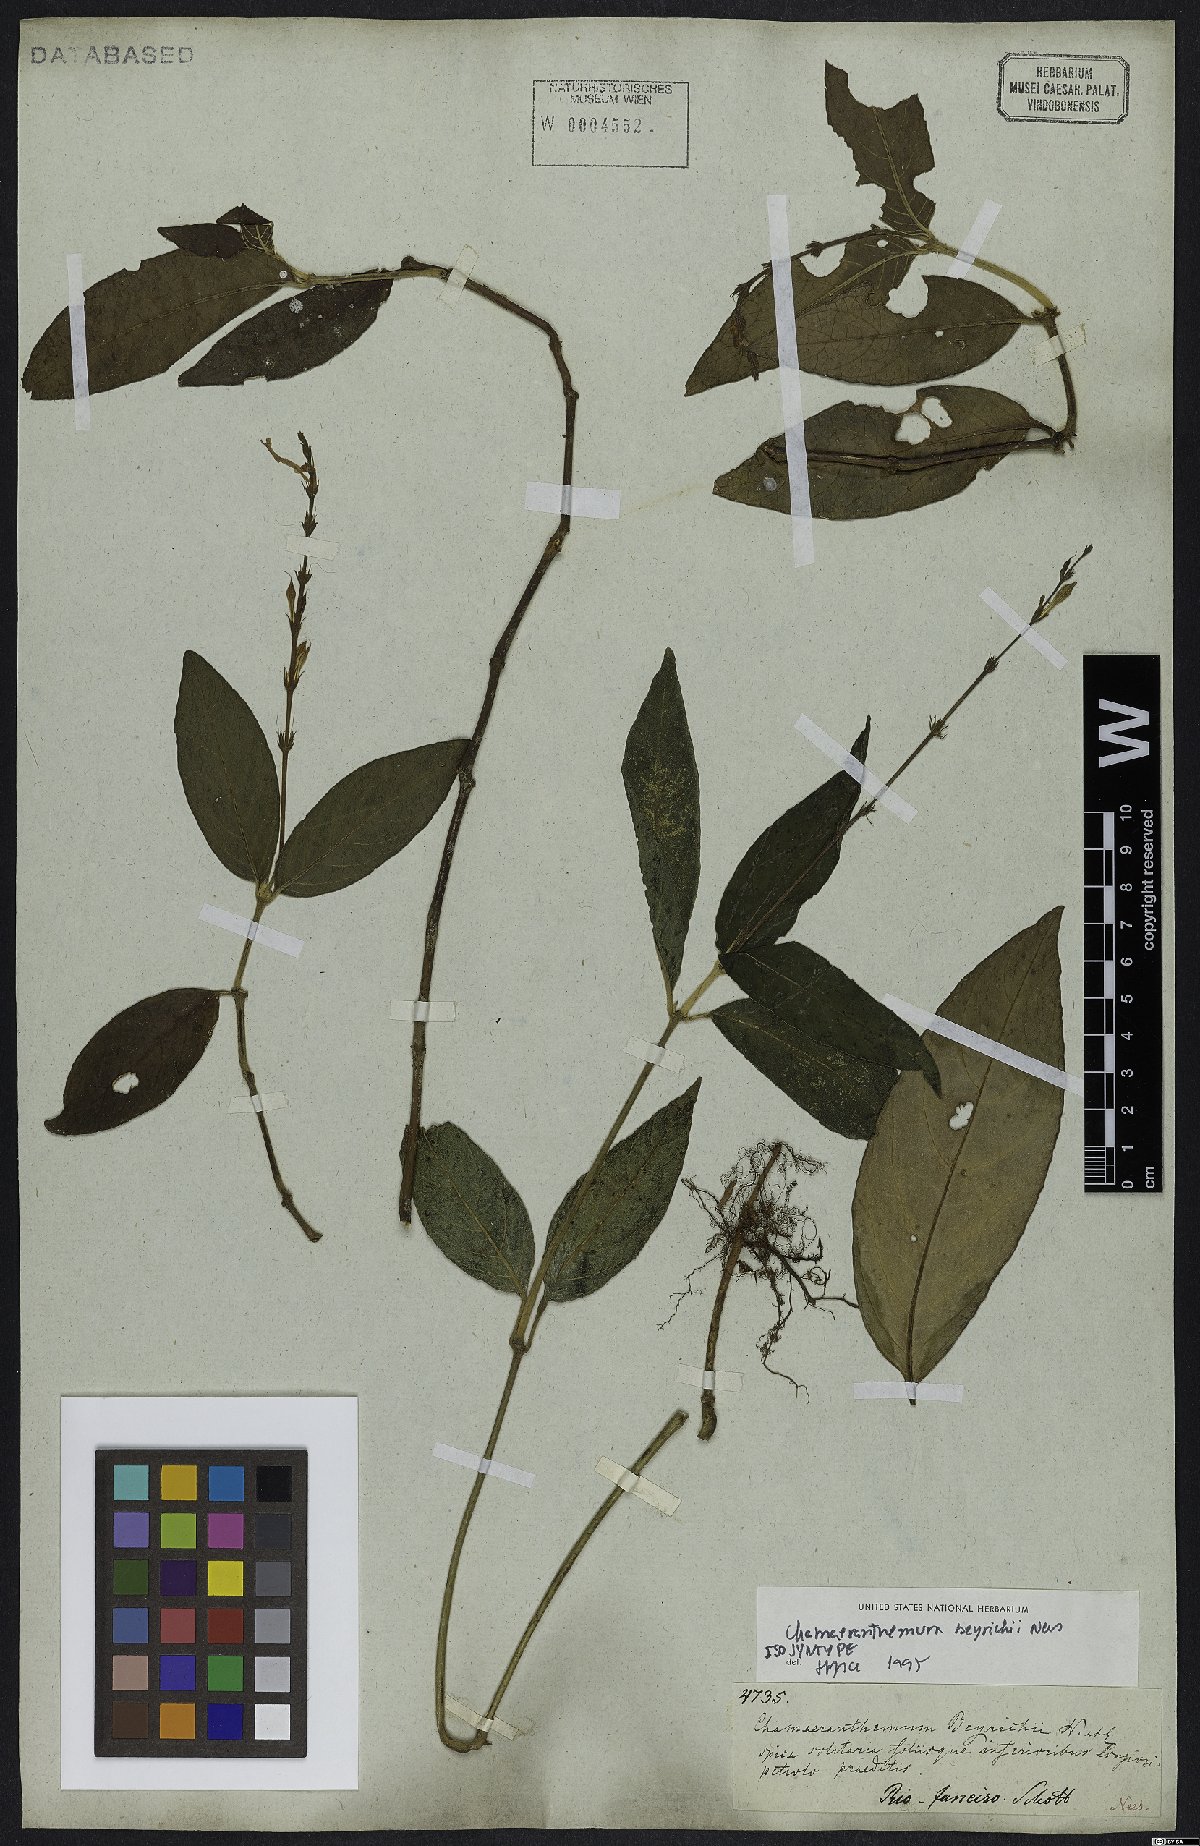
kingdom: Plantae
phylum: Tracheophyta
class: Magnoliopsida
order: Lamiales
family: Acanthaceae
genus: Chamaeranthemum
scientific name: Chamaeranthemum beyrichii
